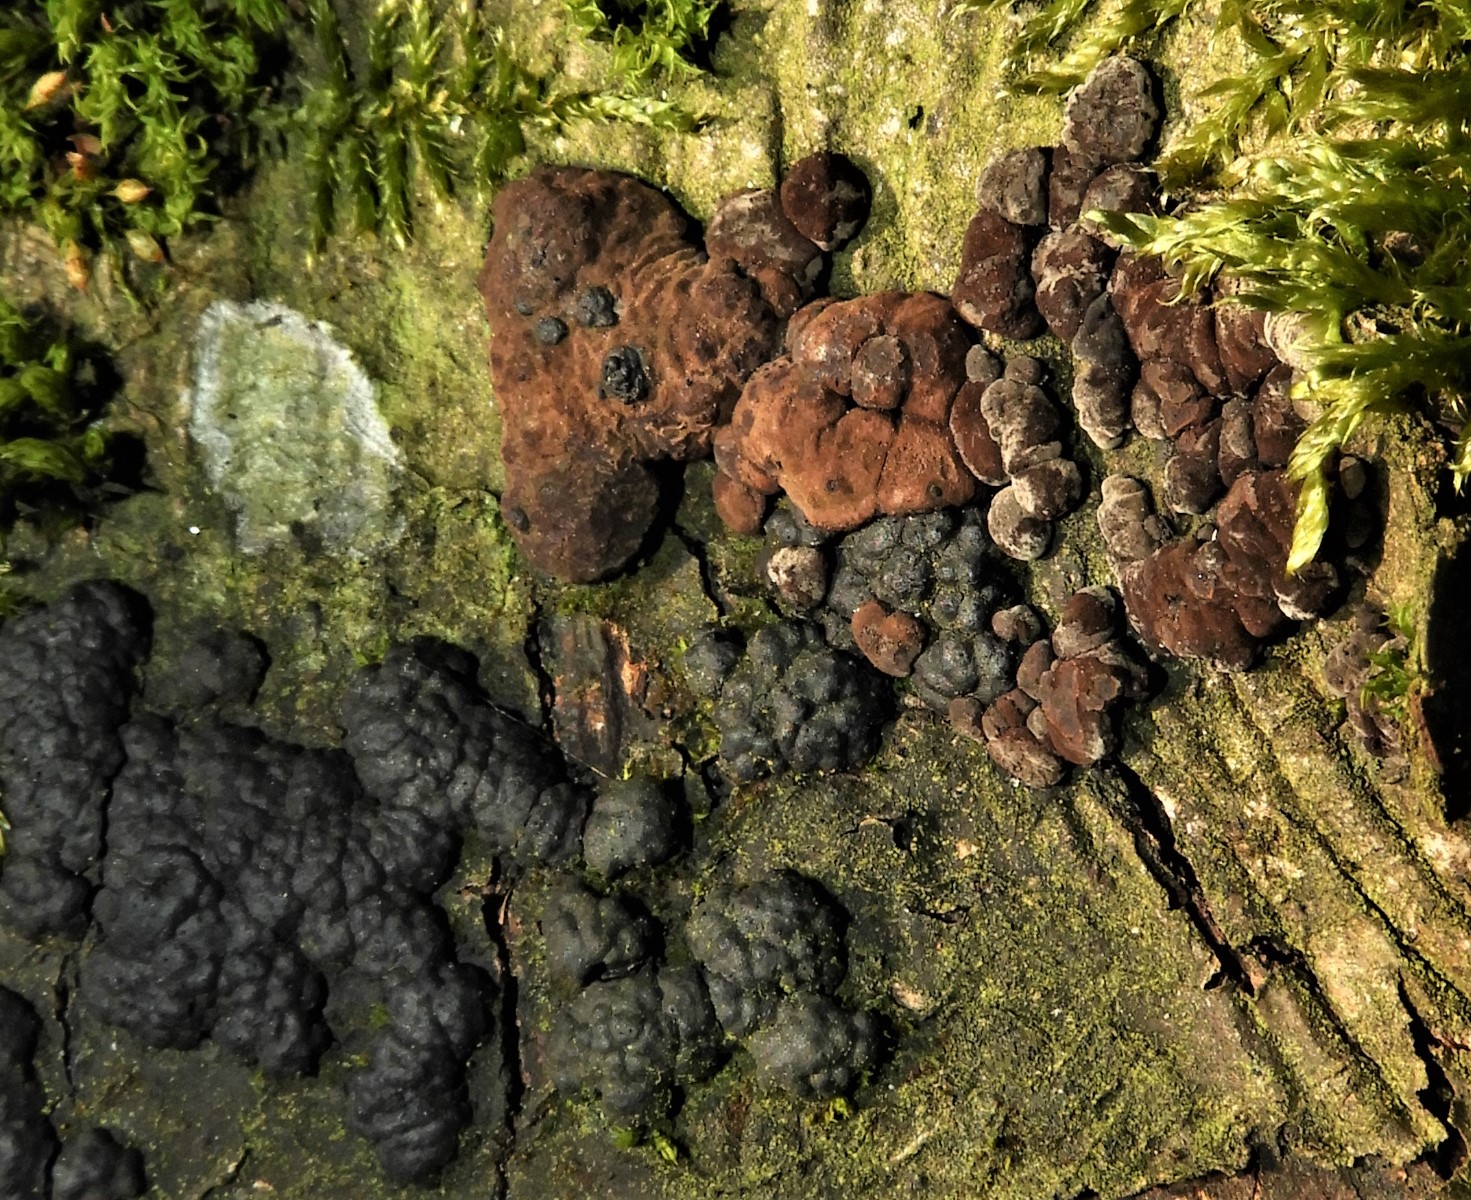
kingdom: Fungi
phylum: Ascomycota
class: Sordariomycetes
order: Xylariales
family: Hypoxylaceae
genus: Jackrogersella
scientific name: Jackrogersella multiformis
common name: foranderlig kulbær
